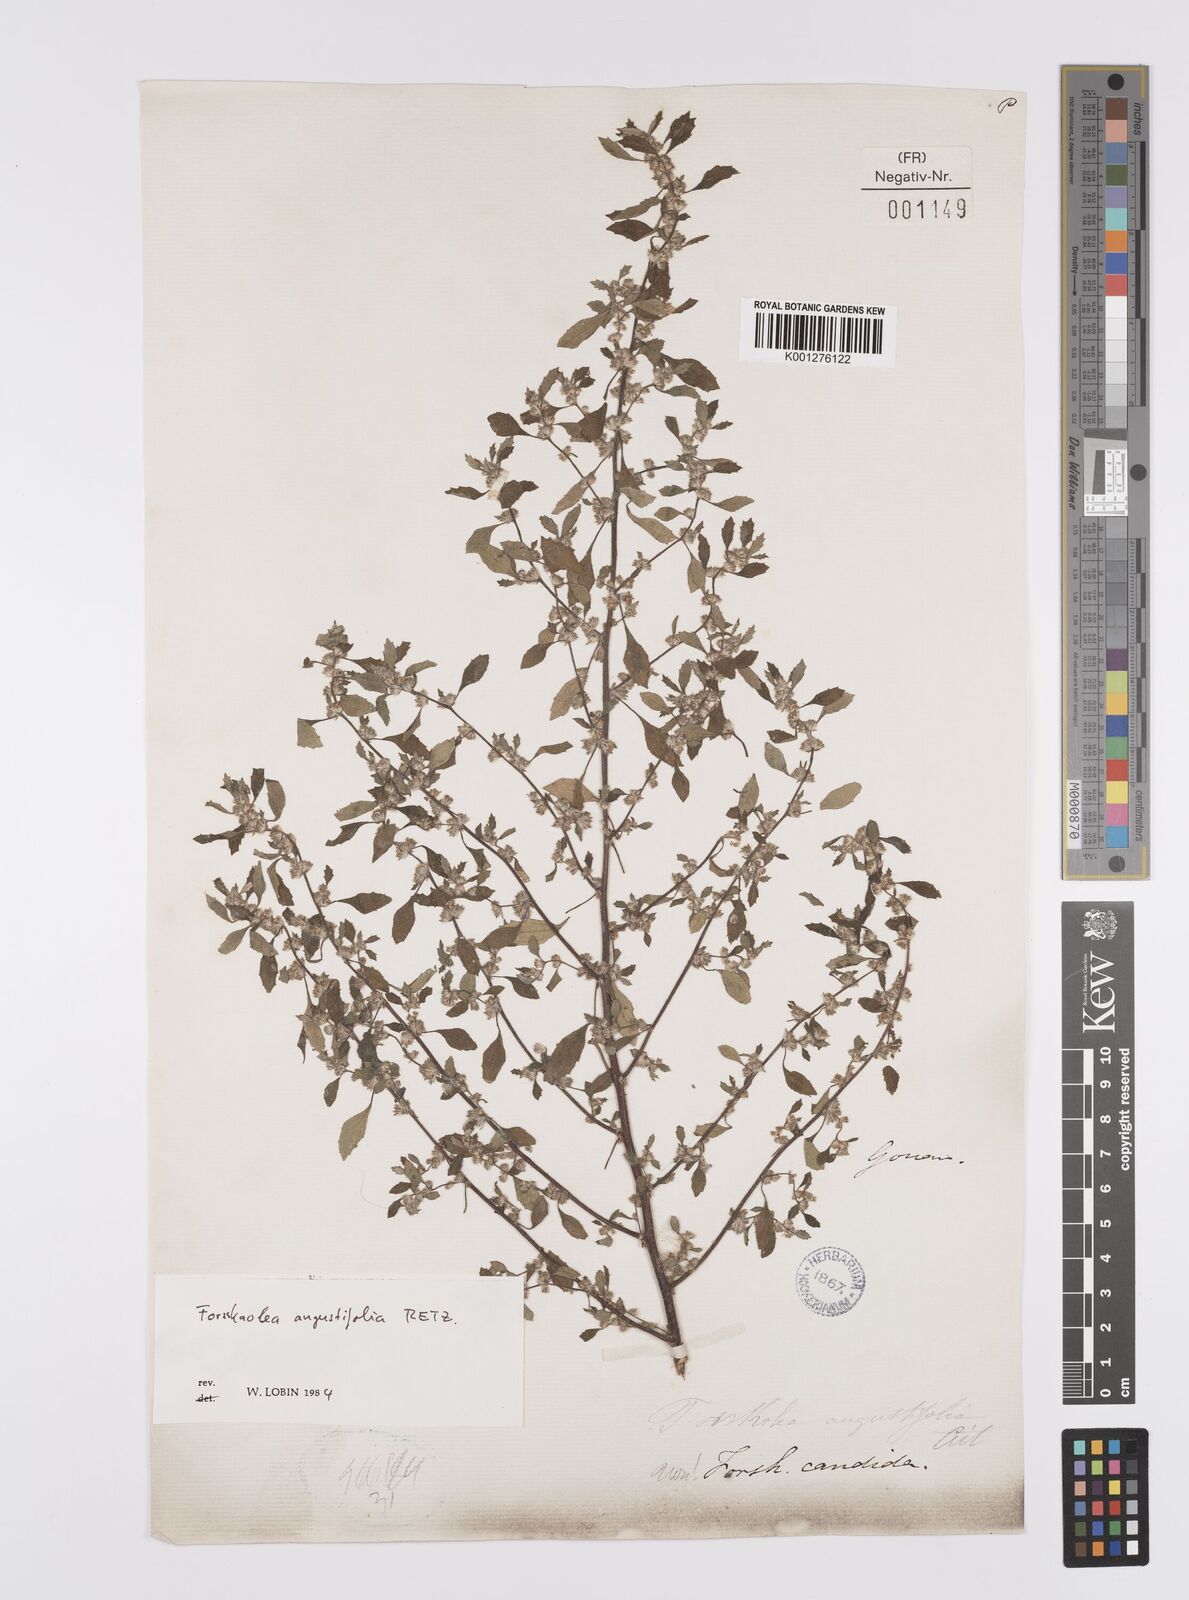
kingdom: Plantae
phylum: Tracheophyta
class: Magnoliopsida
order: Rosales
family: Urticaceae
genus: Forsskaolea
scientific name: Forsskaolea angustifolia
